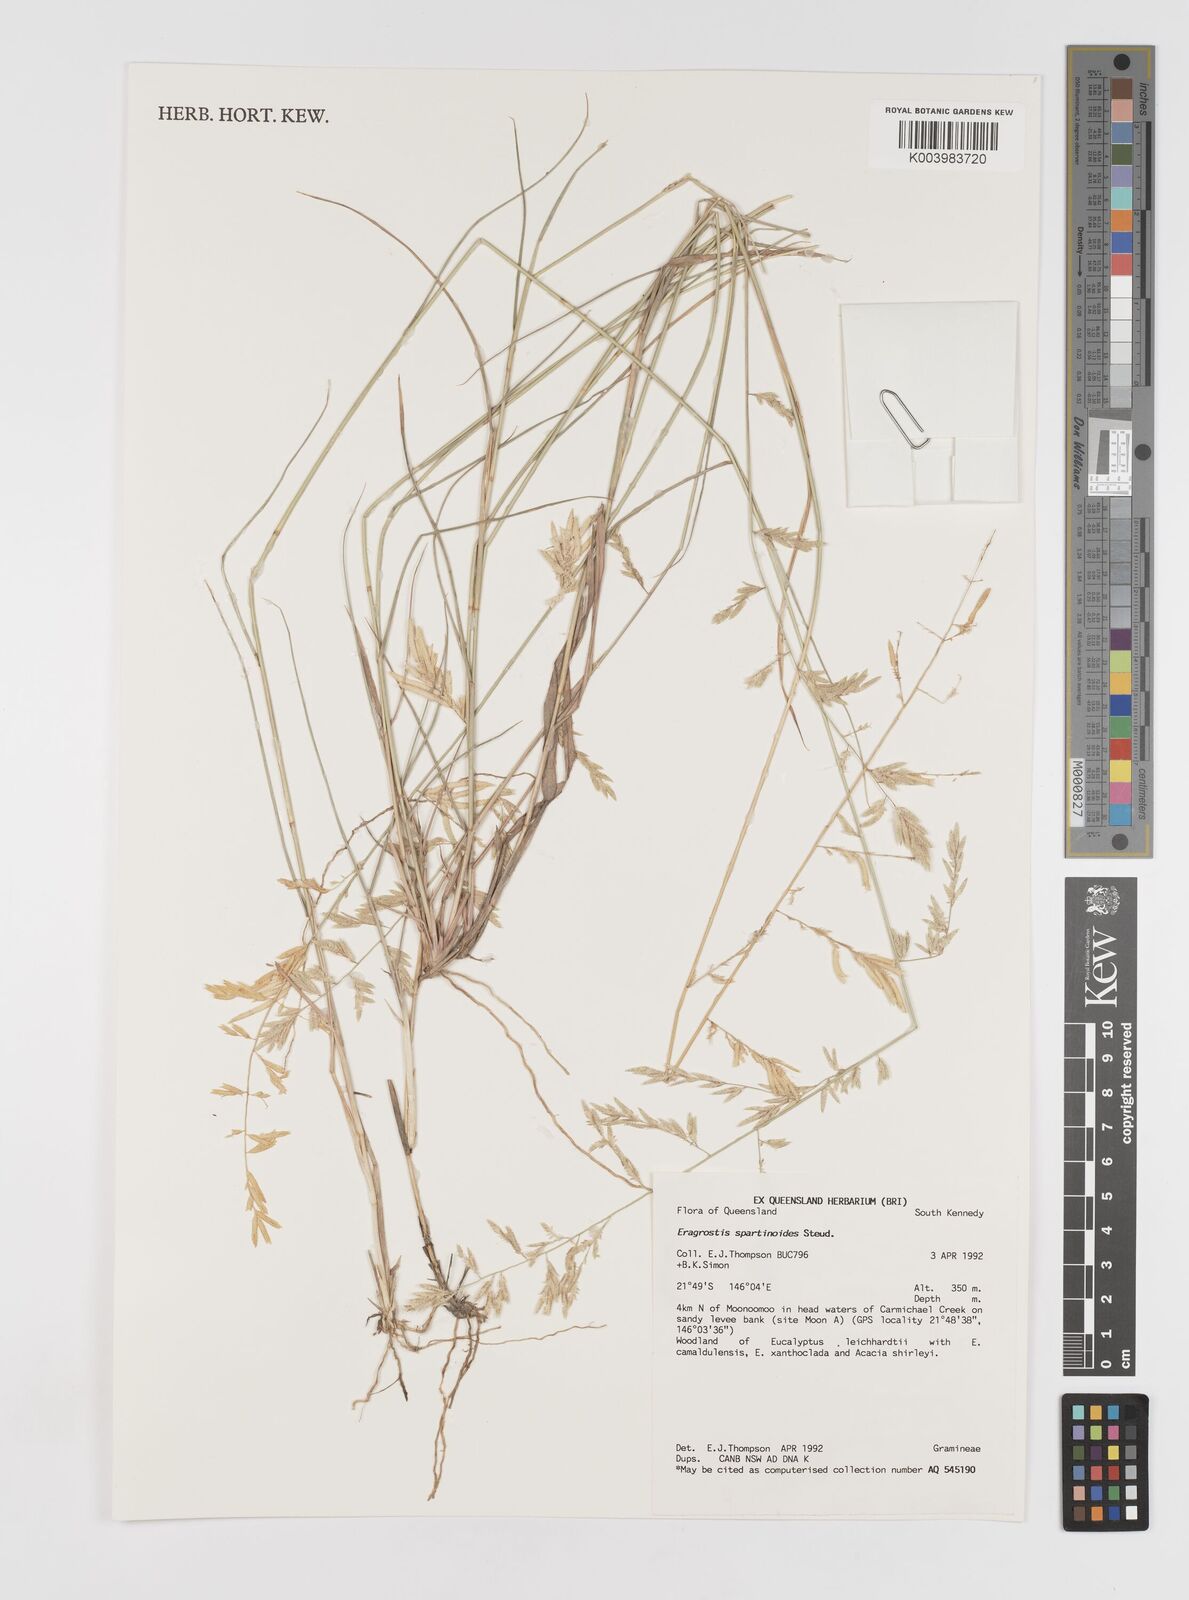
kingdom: Plantae
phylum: Tracheophyta
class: Liliopsida
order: Poales
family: Poaceae
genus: Eragrostis
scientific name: Eragrostis brownii
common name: Lovegrass
